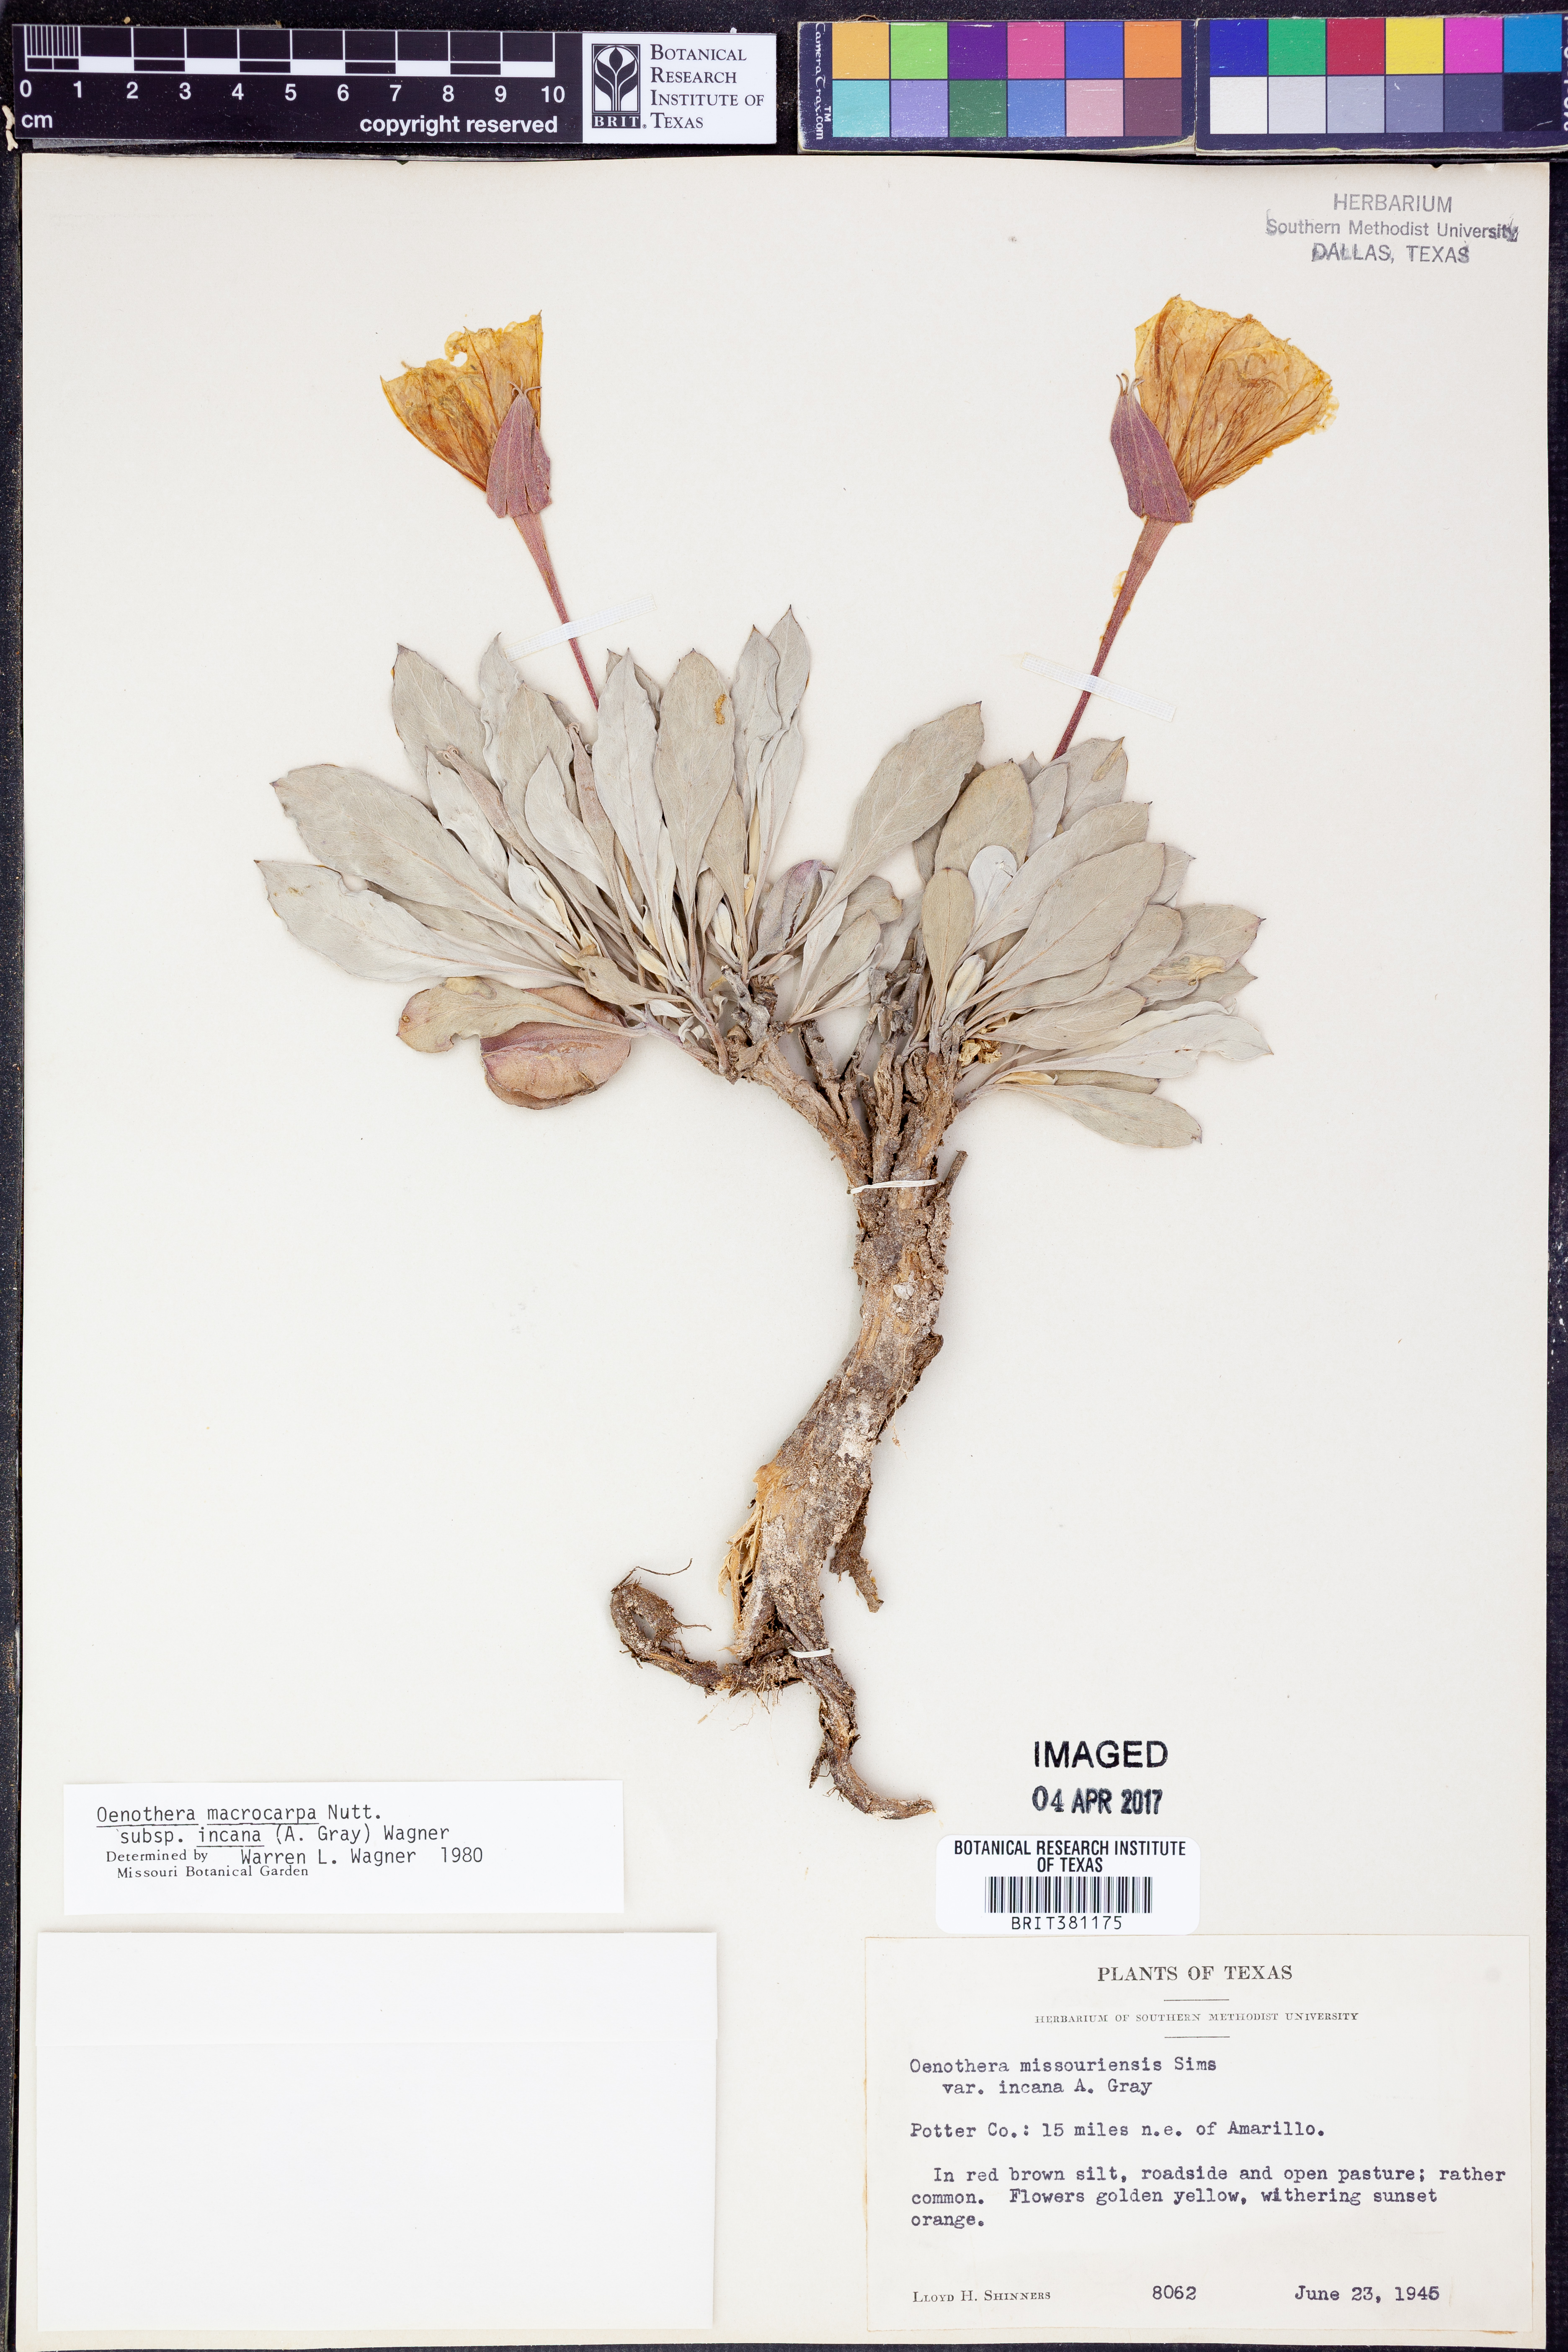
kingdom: Plantae
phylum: Tracheophyta
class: Magnoliopsida
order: Myrtales
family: Onagraceae
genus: Oenothera
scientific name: Oenothera macrocarpa
